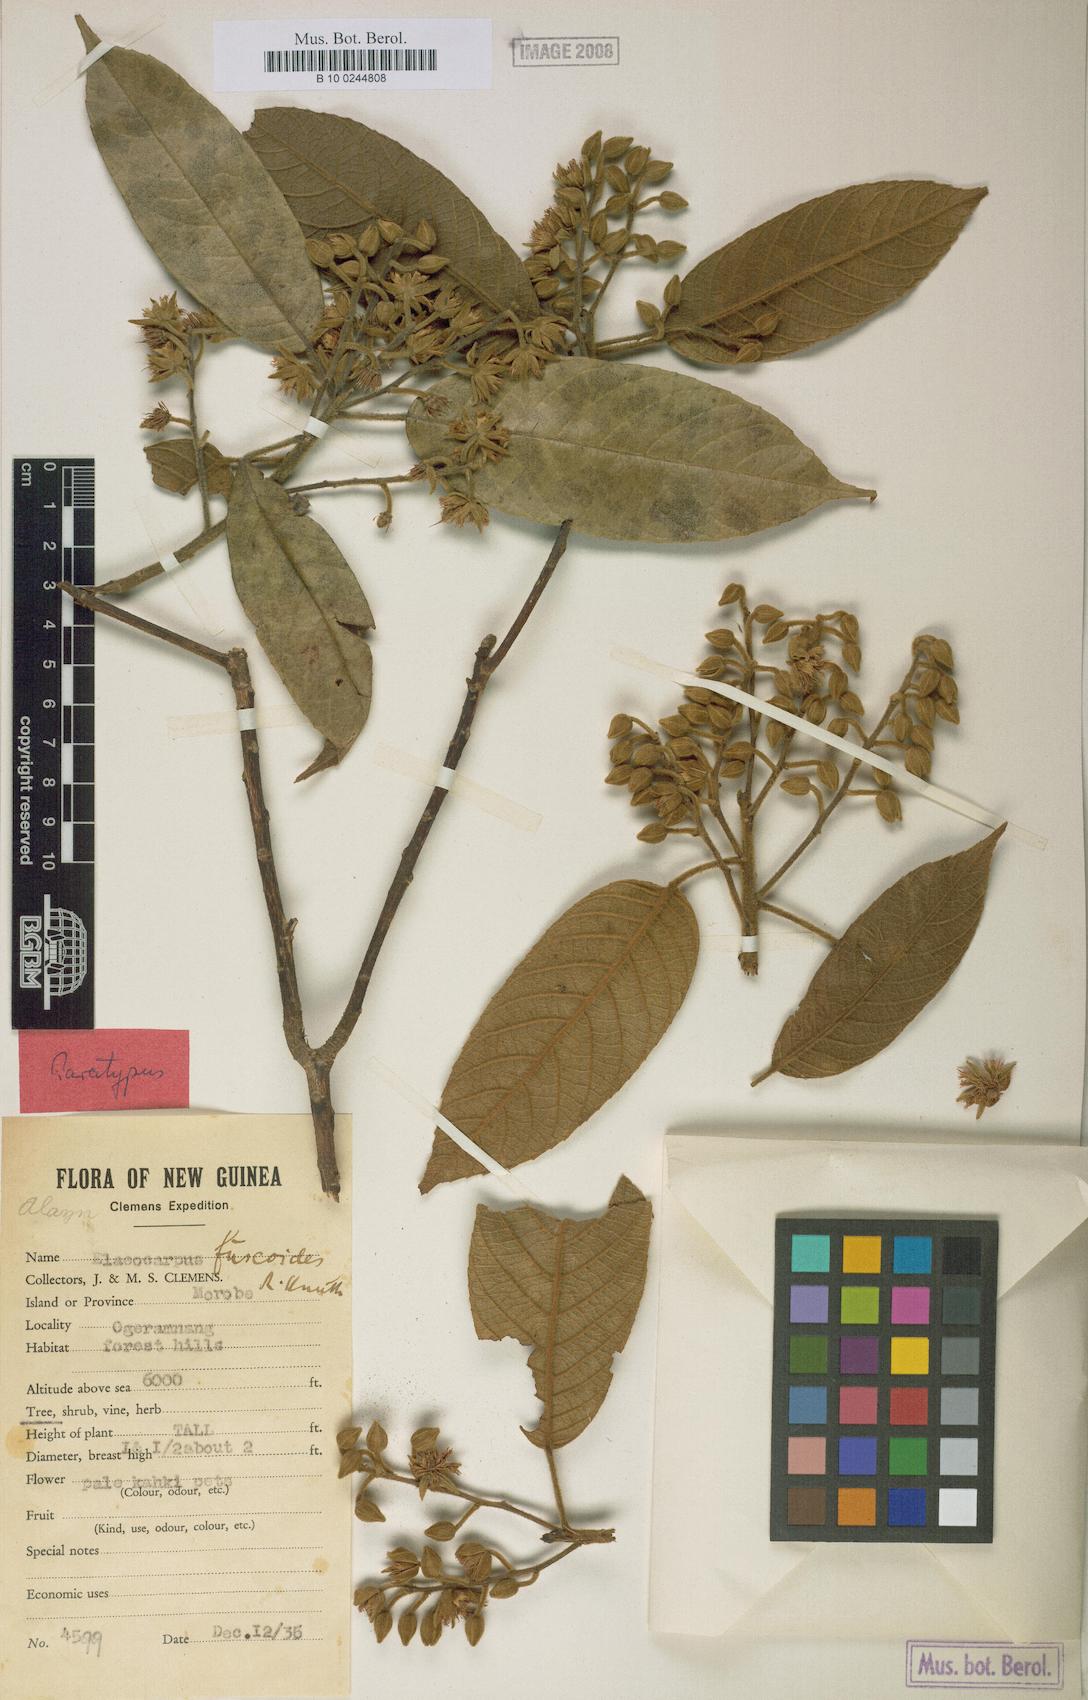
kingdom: Plantae
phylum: Tracheophyta
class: Magnoliopsida
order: Oxalidales
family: Elaeocarpaceae
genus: Elaeocarpus
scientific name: Elaeocarpus fuscoides
